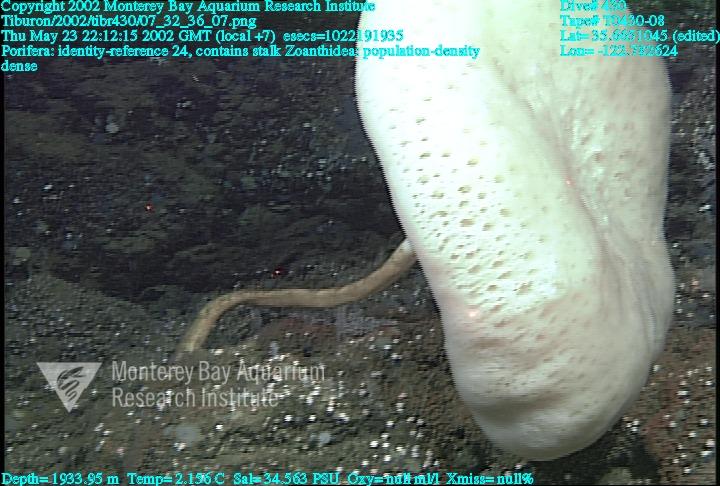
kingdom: Animalia
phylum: Porifera
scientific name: Porifera
